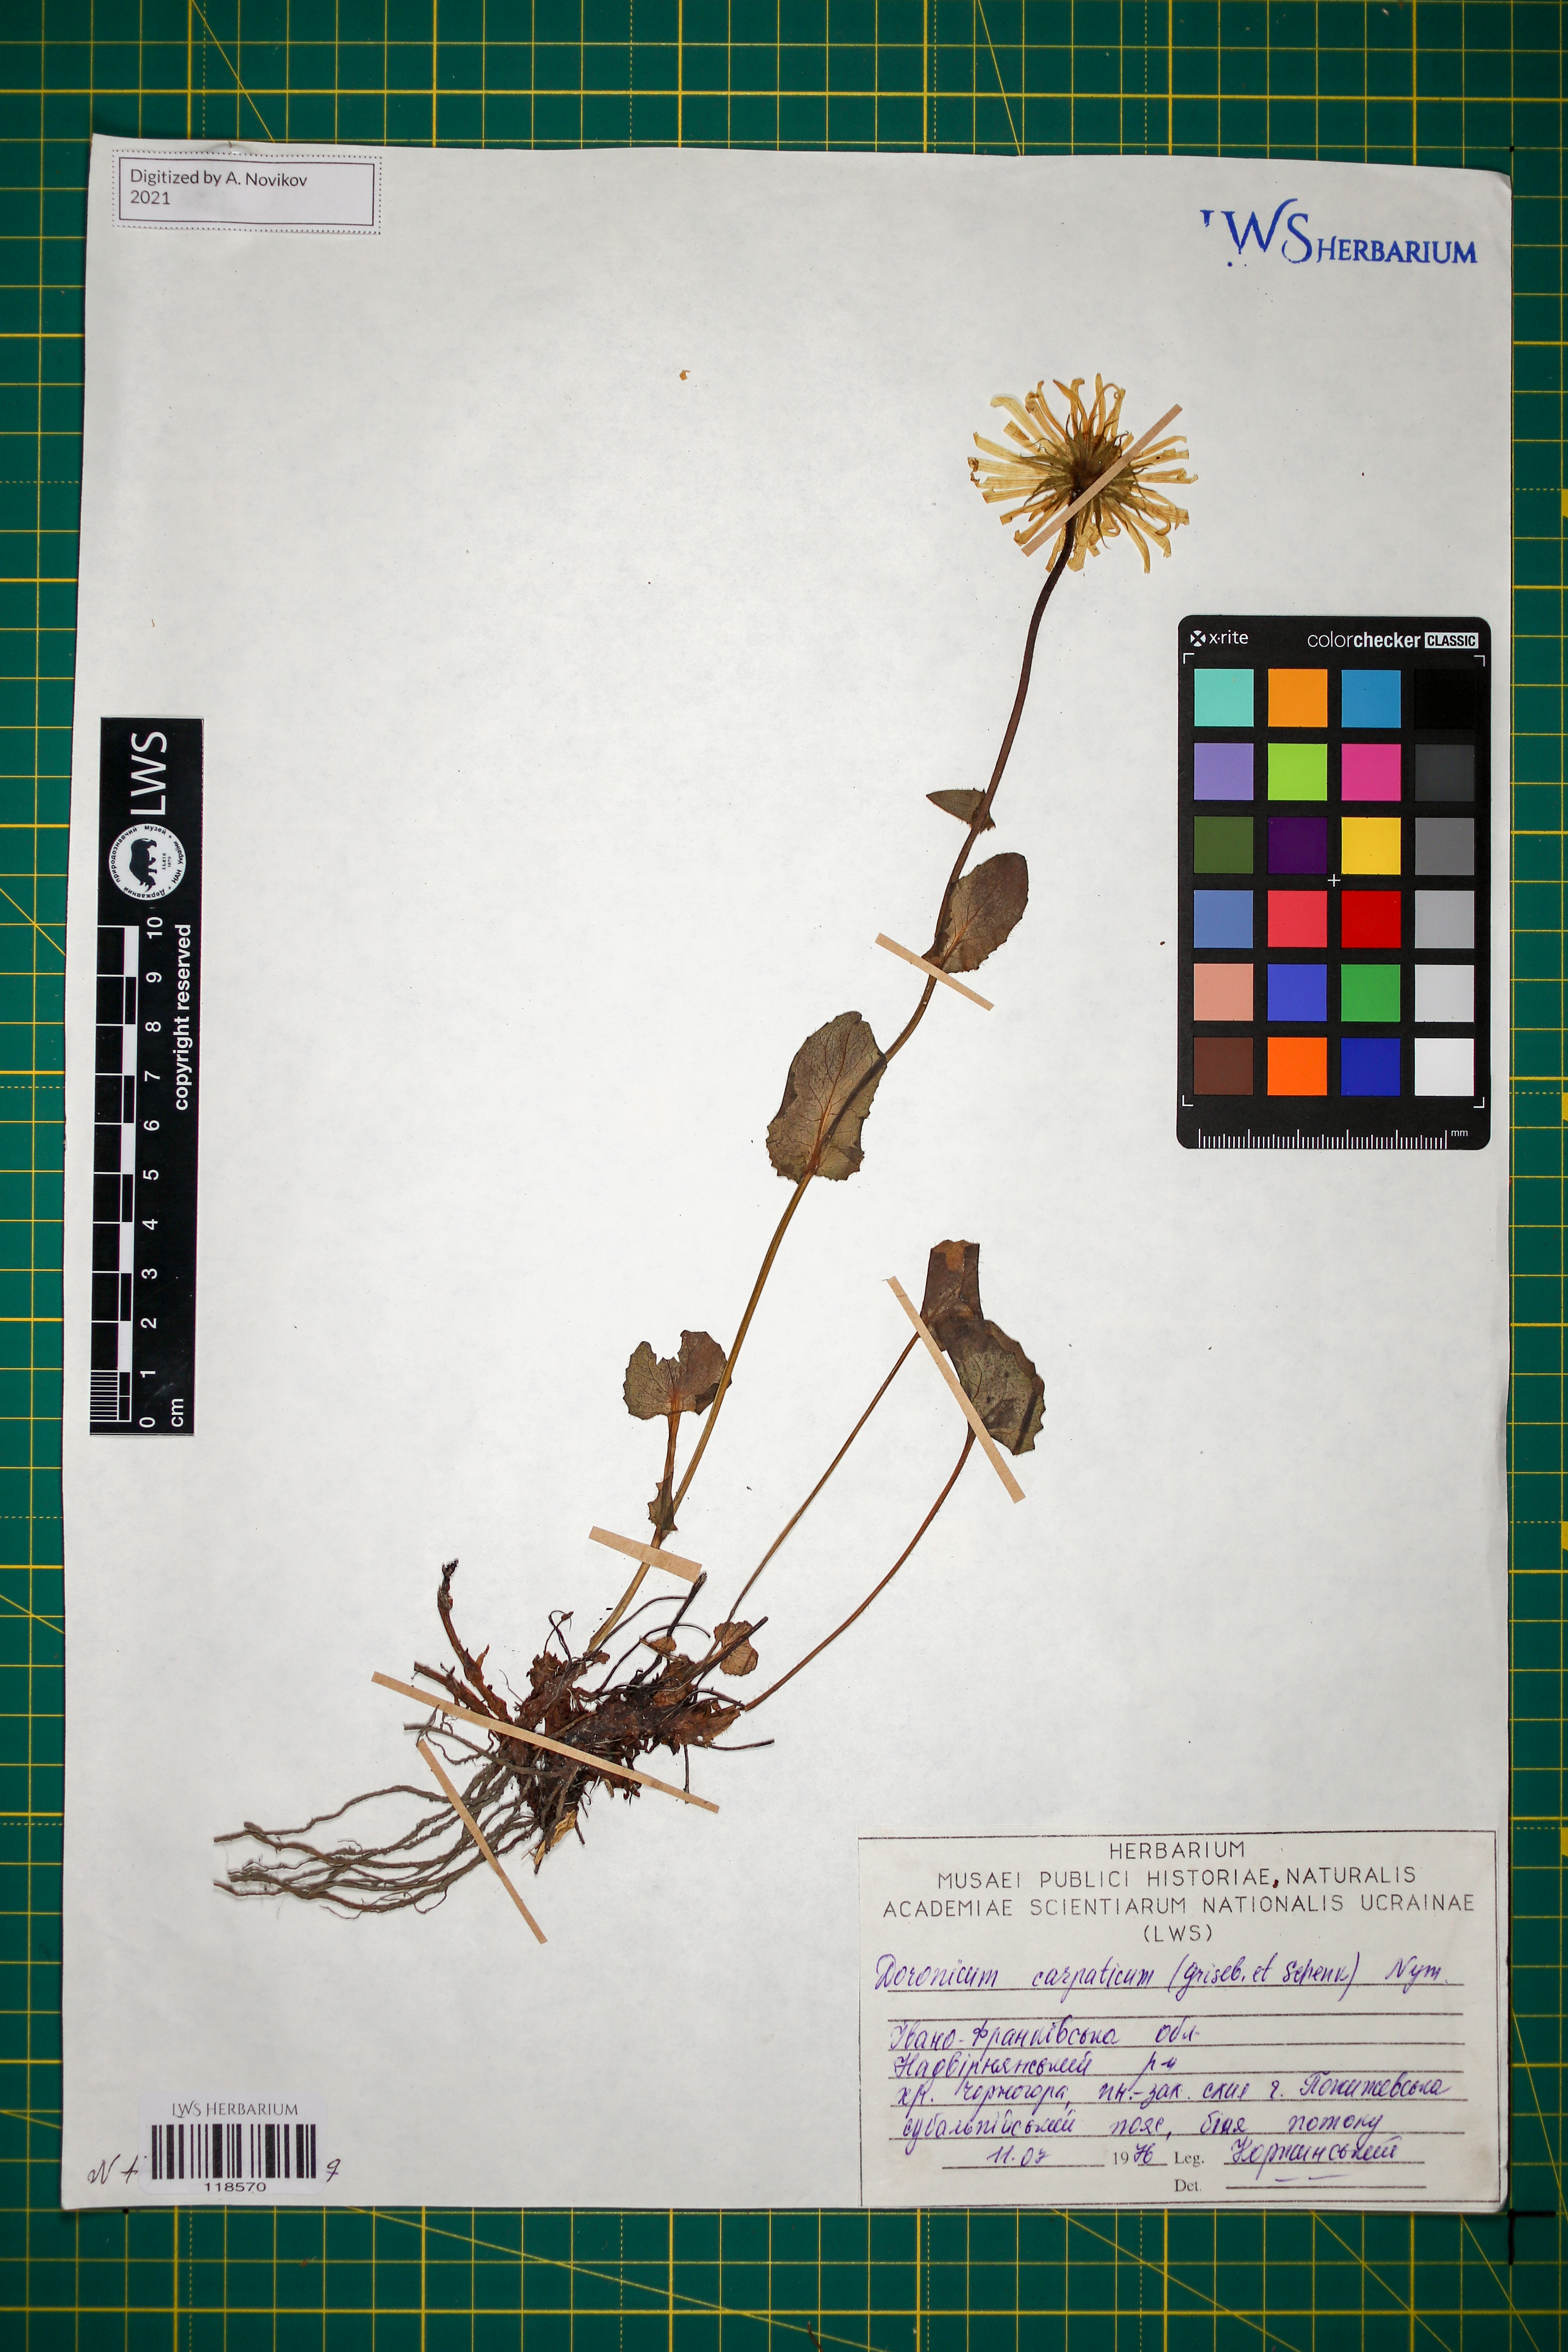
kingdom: Plantae
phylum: Tracheophyta
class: Magnoliopsida
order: Asterales
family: Asteraceae
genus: Doronicum
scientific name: Doronicum carpaticum
